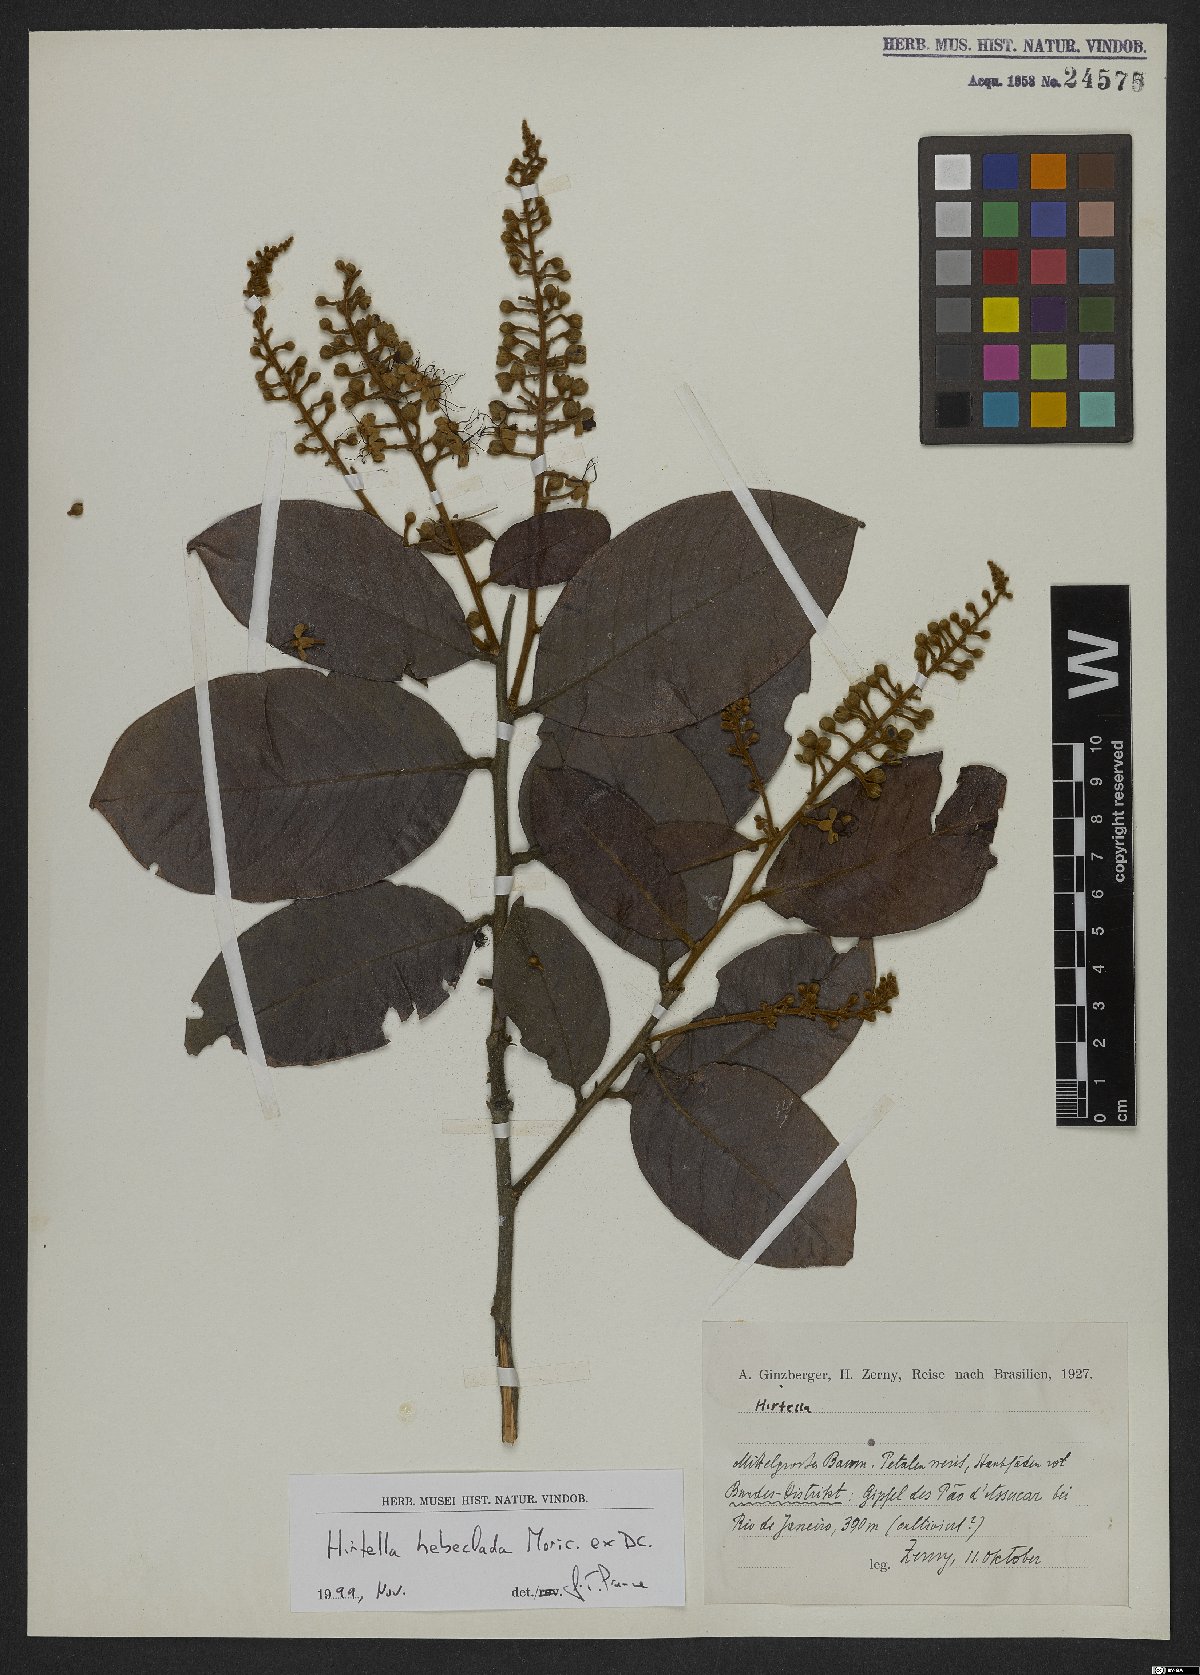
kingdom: Plantae
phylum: Tracheophyta
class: Magnoliopsida
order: Malpighiales
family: Chrysobalanaceae
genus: Hirtella
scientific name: Hirtella hebeclada
